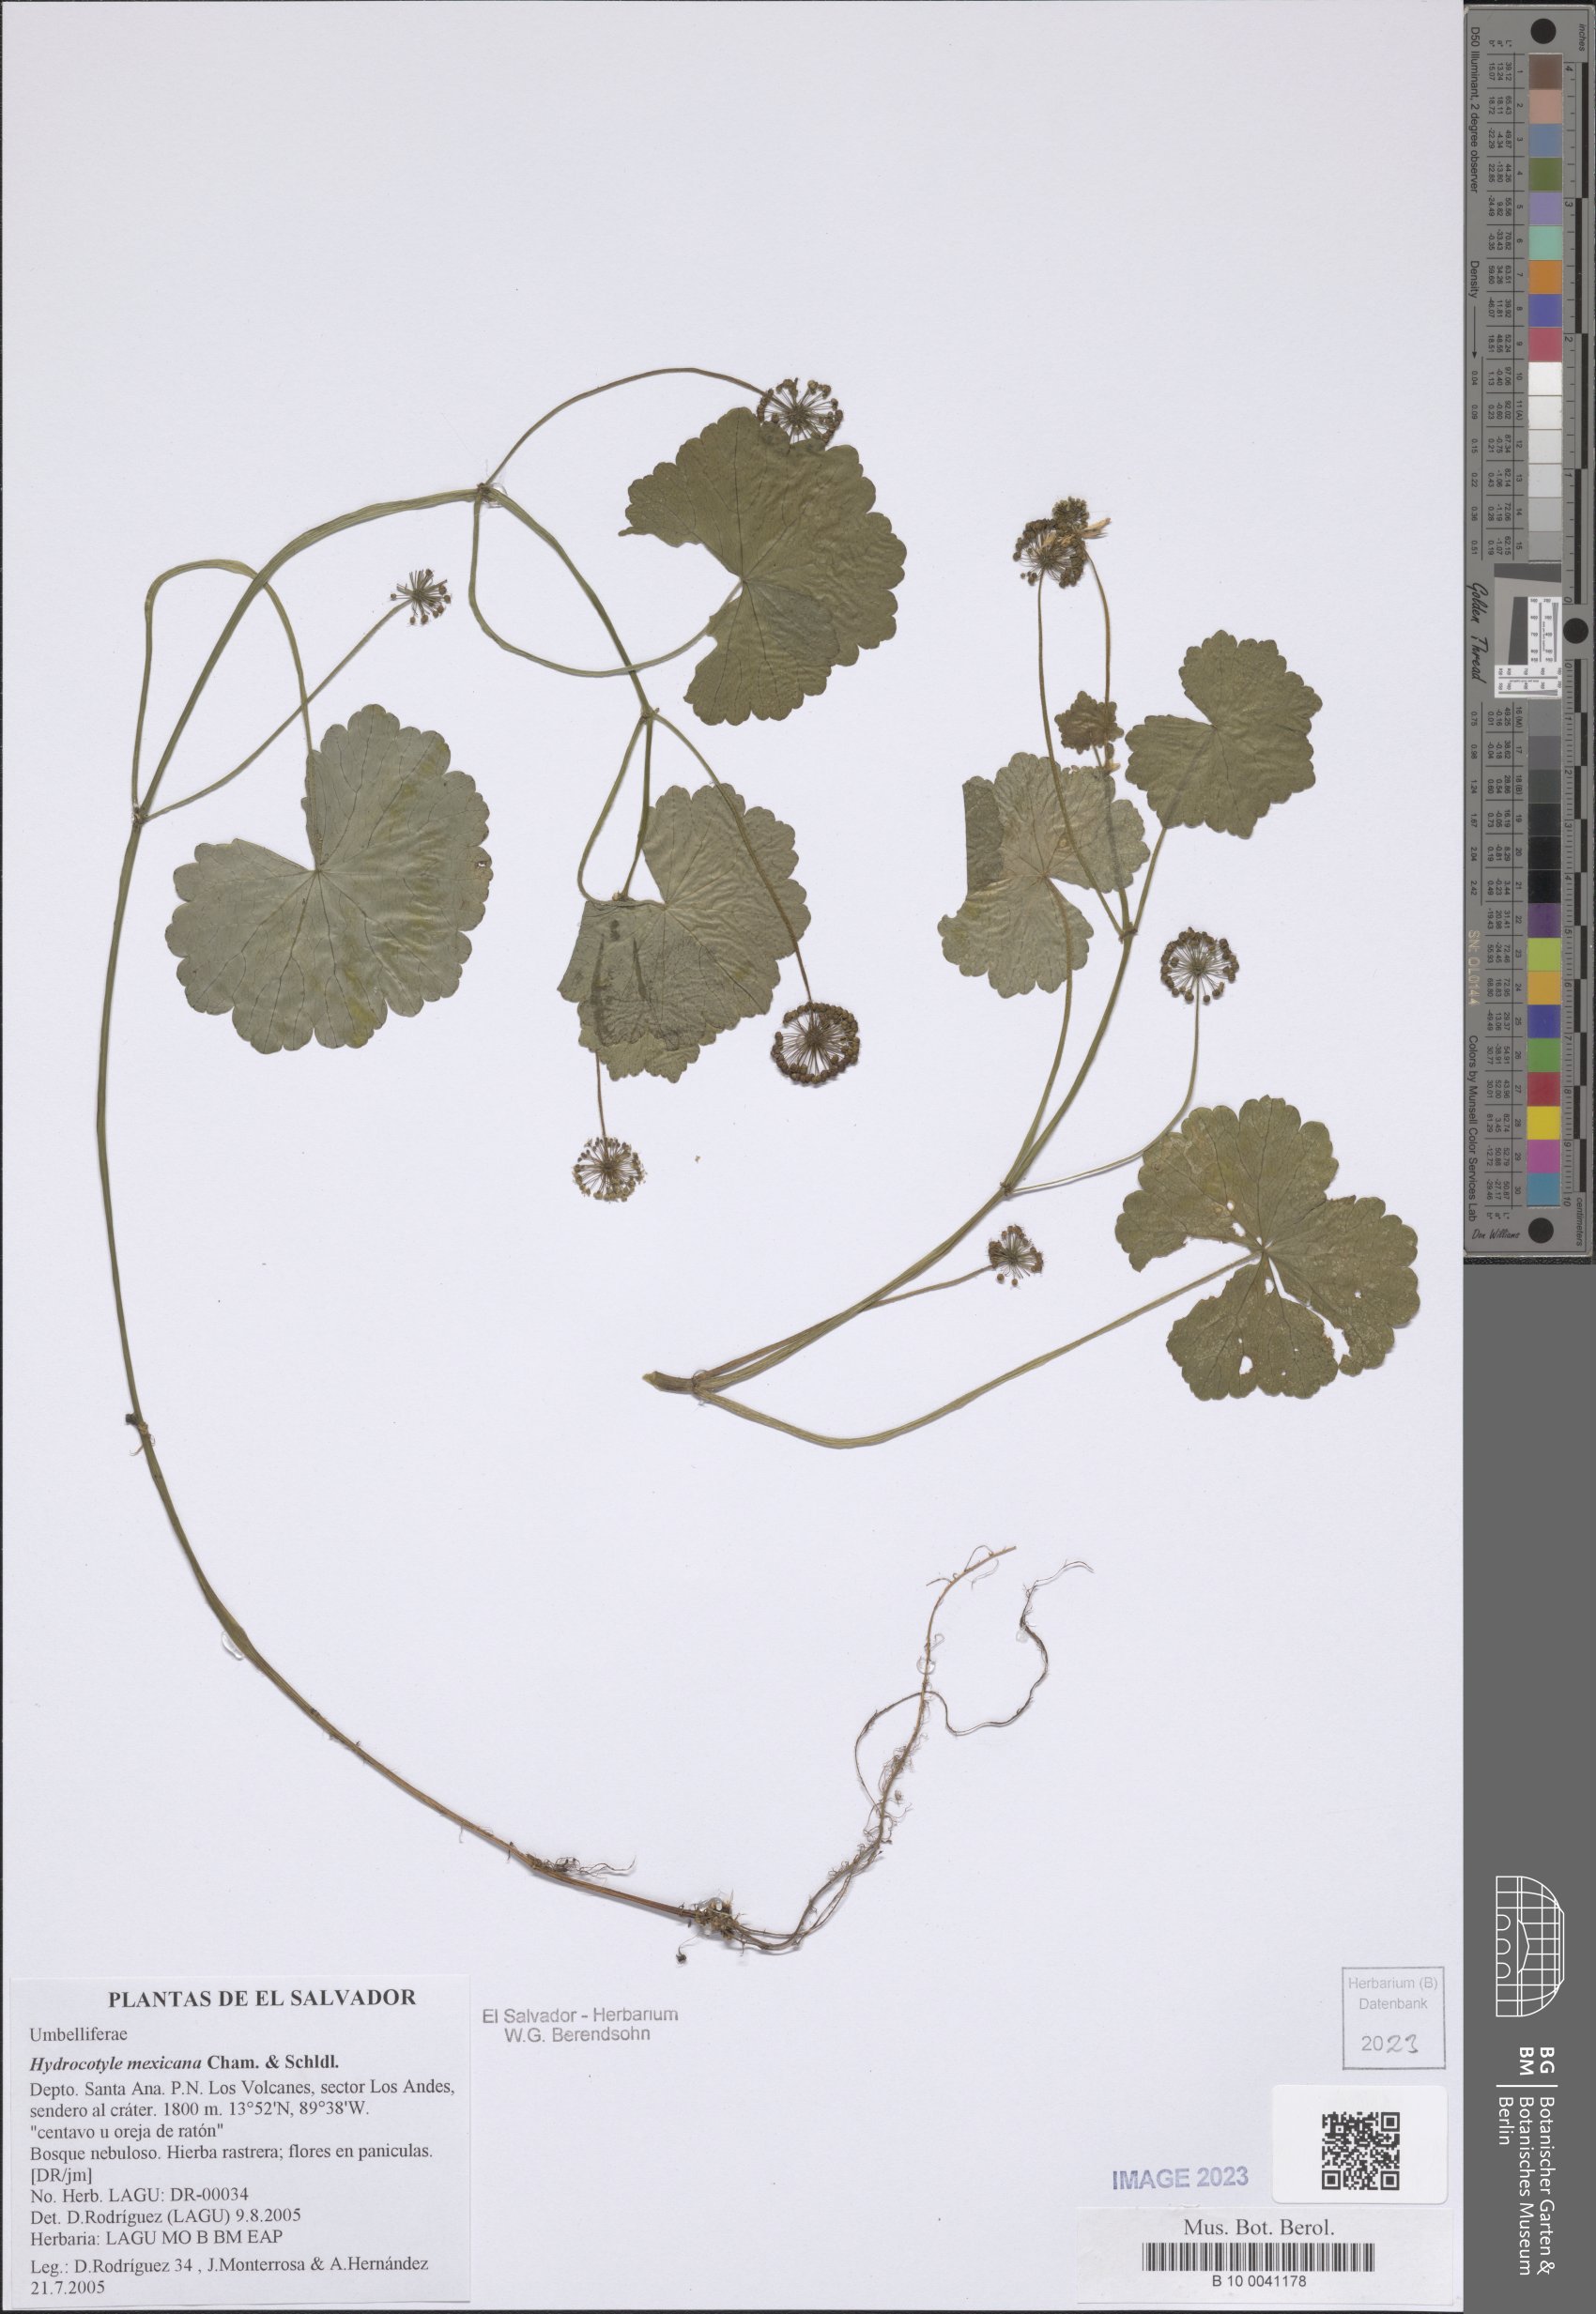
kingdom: Plantae
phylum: Tracheophyta
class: Magnoliopsida
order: Apiales
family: Araliaceae
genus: Hydrocotyle
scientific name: Hydrocotyle mexicana
